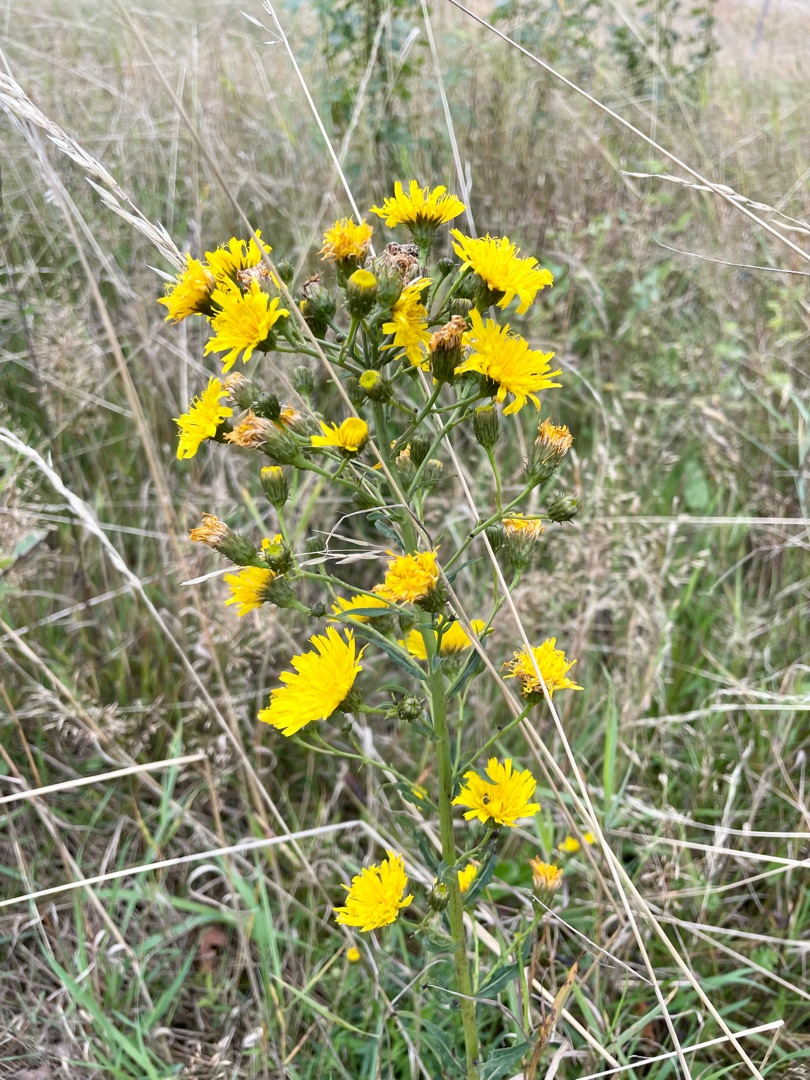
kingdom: Plantae
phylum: Tracheophyta
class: Magnoliopsida
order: Asterales
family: Asteraceae
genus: Hieracium
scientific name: Hieracium umbellatum
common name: Smalbladet høgeurt
